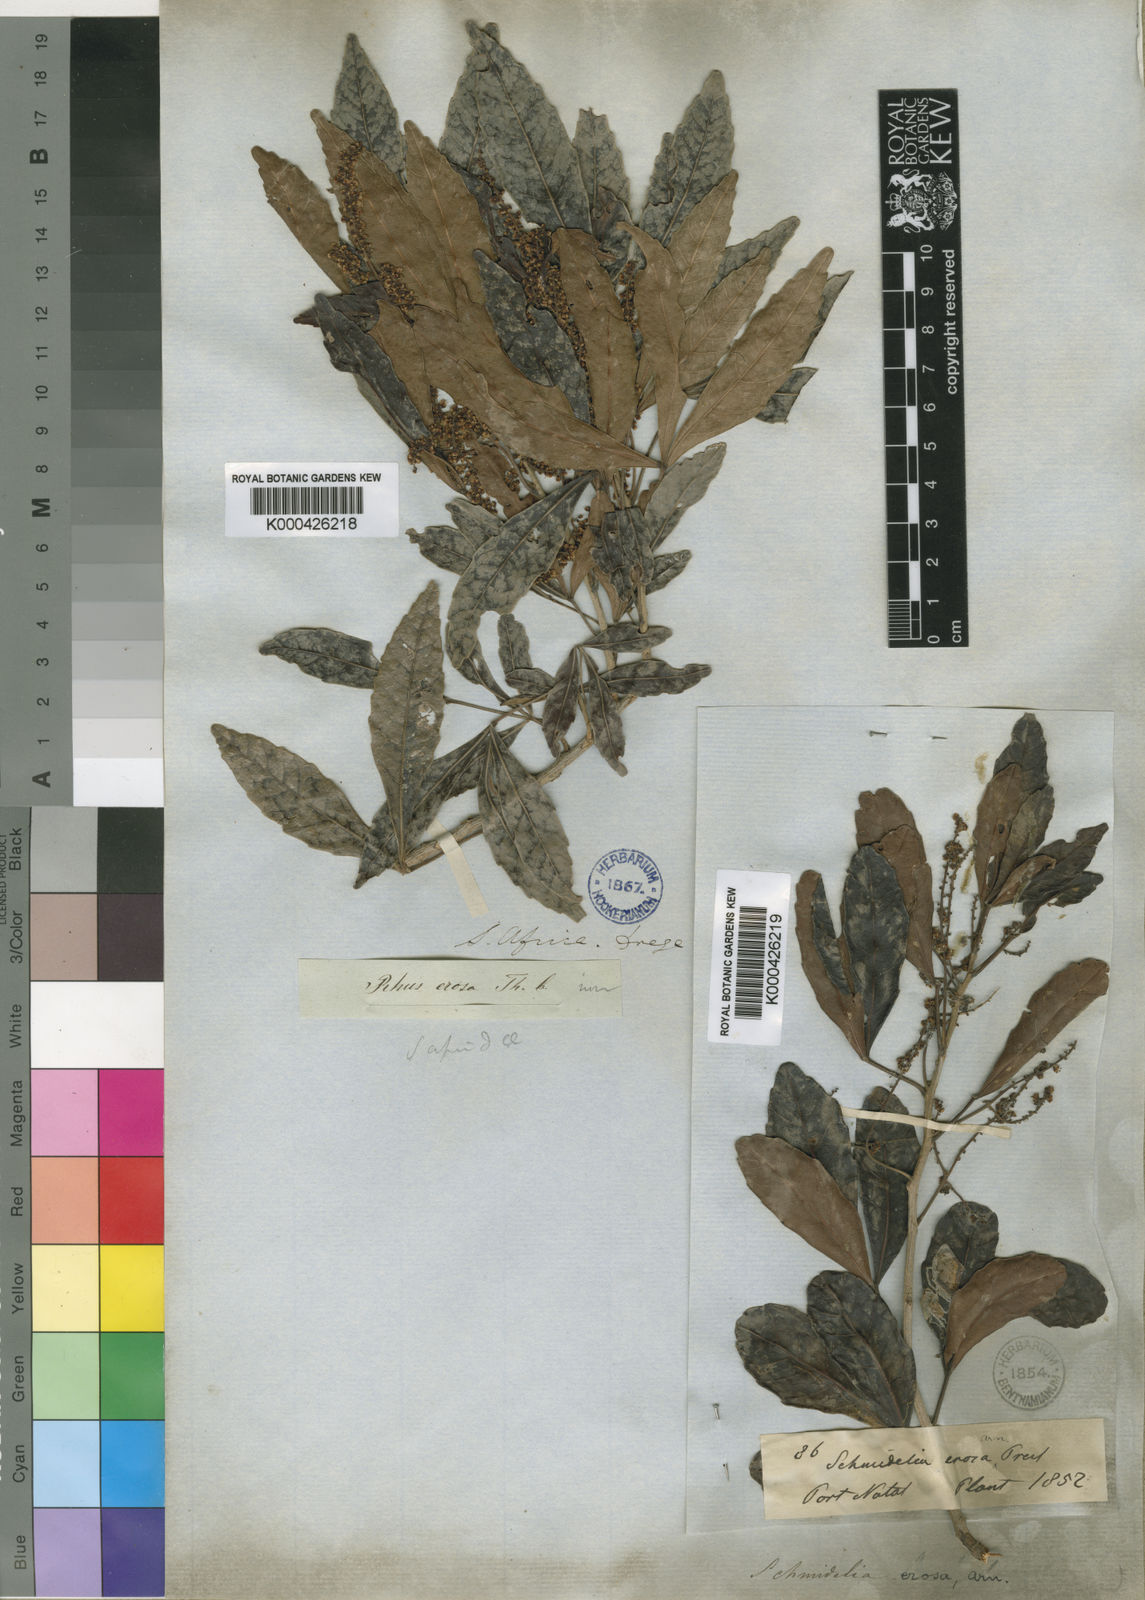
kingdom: Plantae
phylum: Tracheophyta
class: Magnoliopsida
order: Sapindales
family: Sapindaceae
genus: Allophylus
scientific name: Allophylus natalensis
